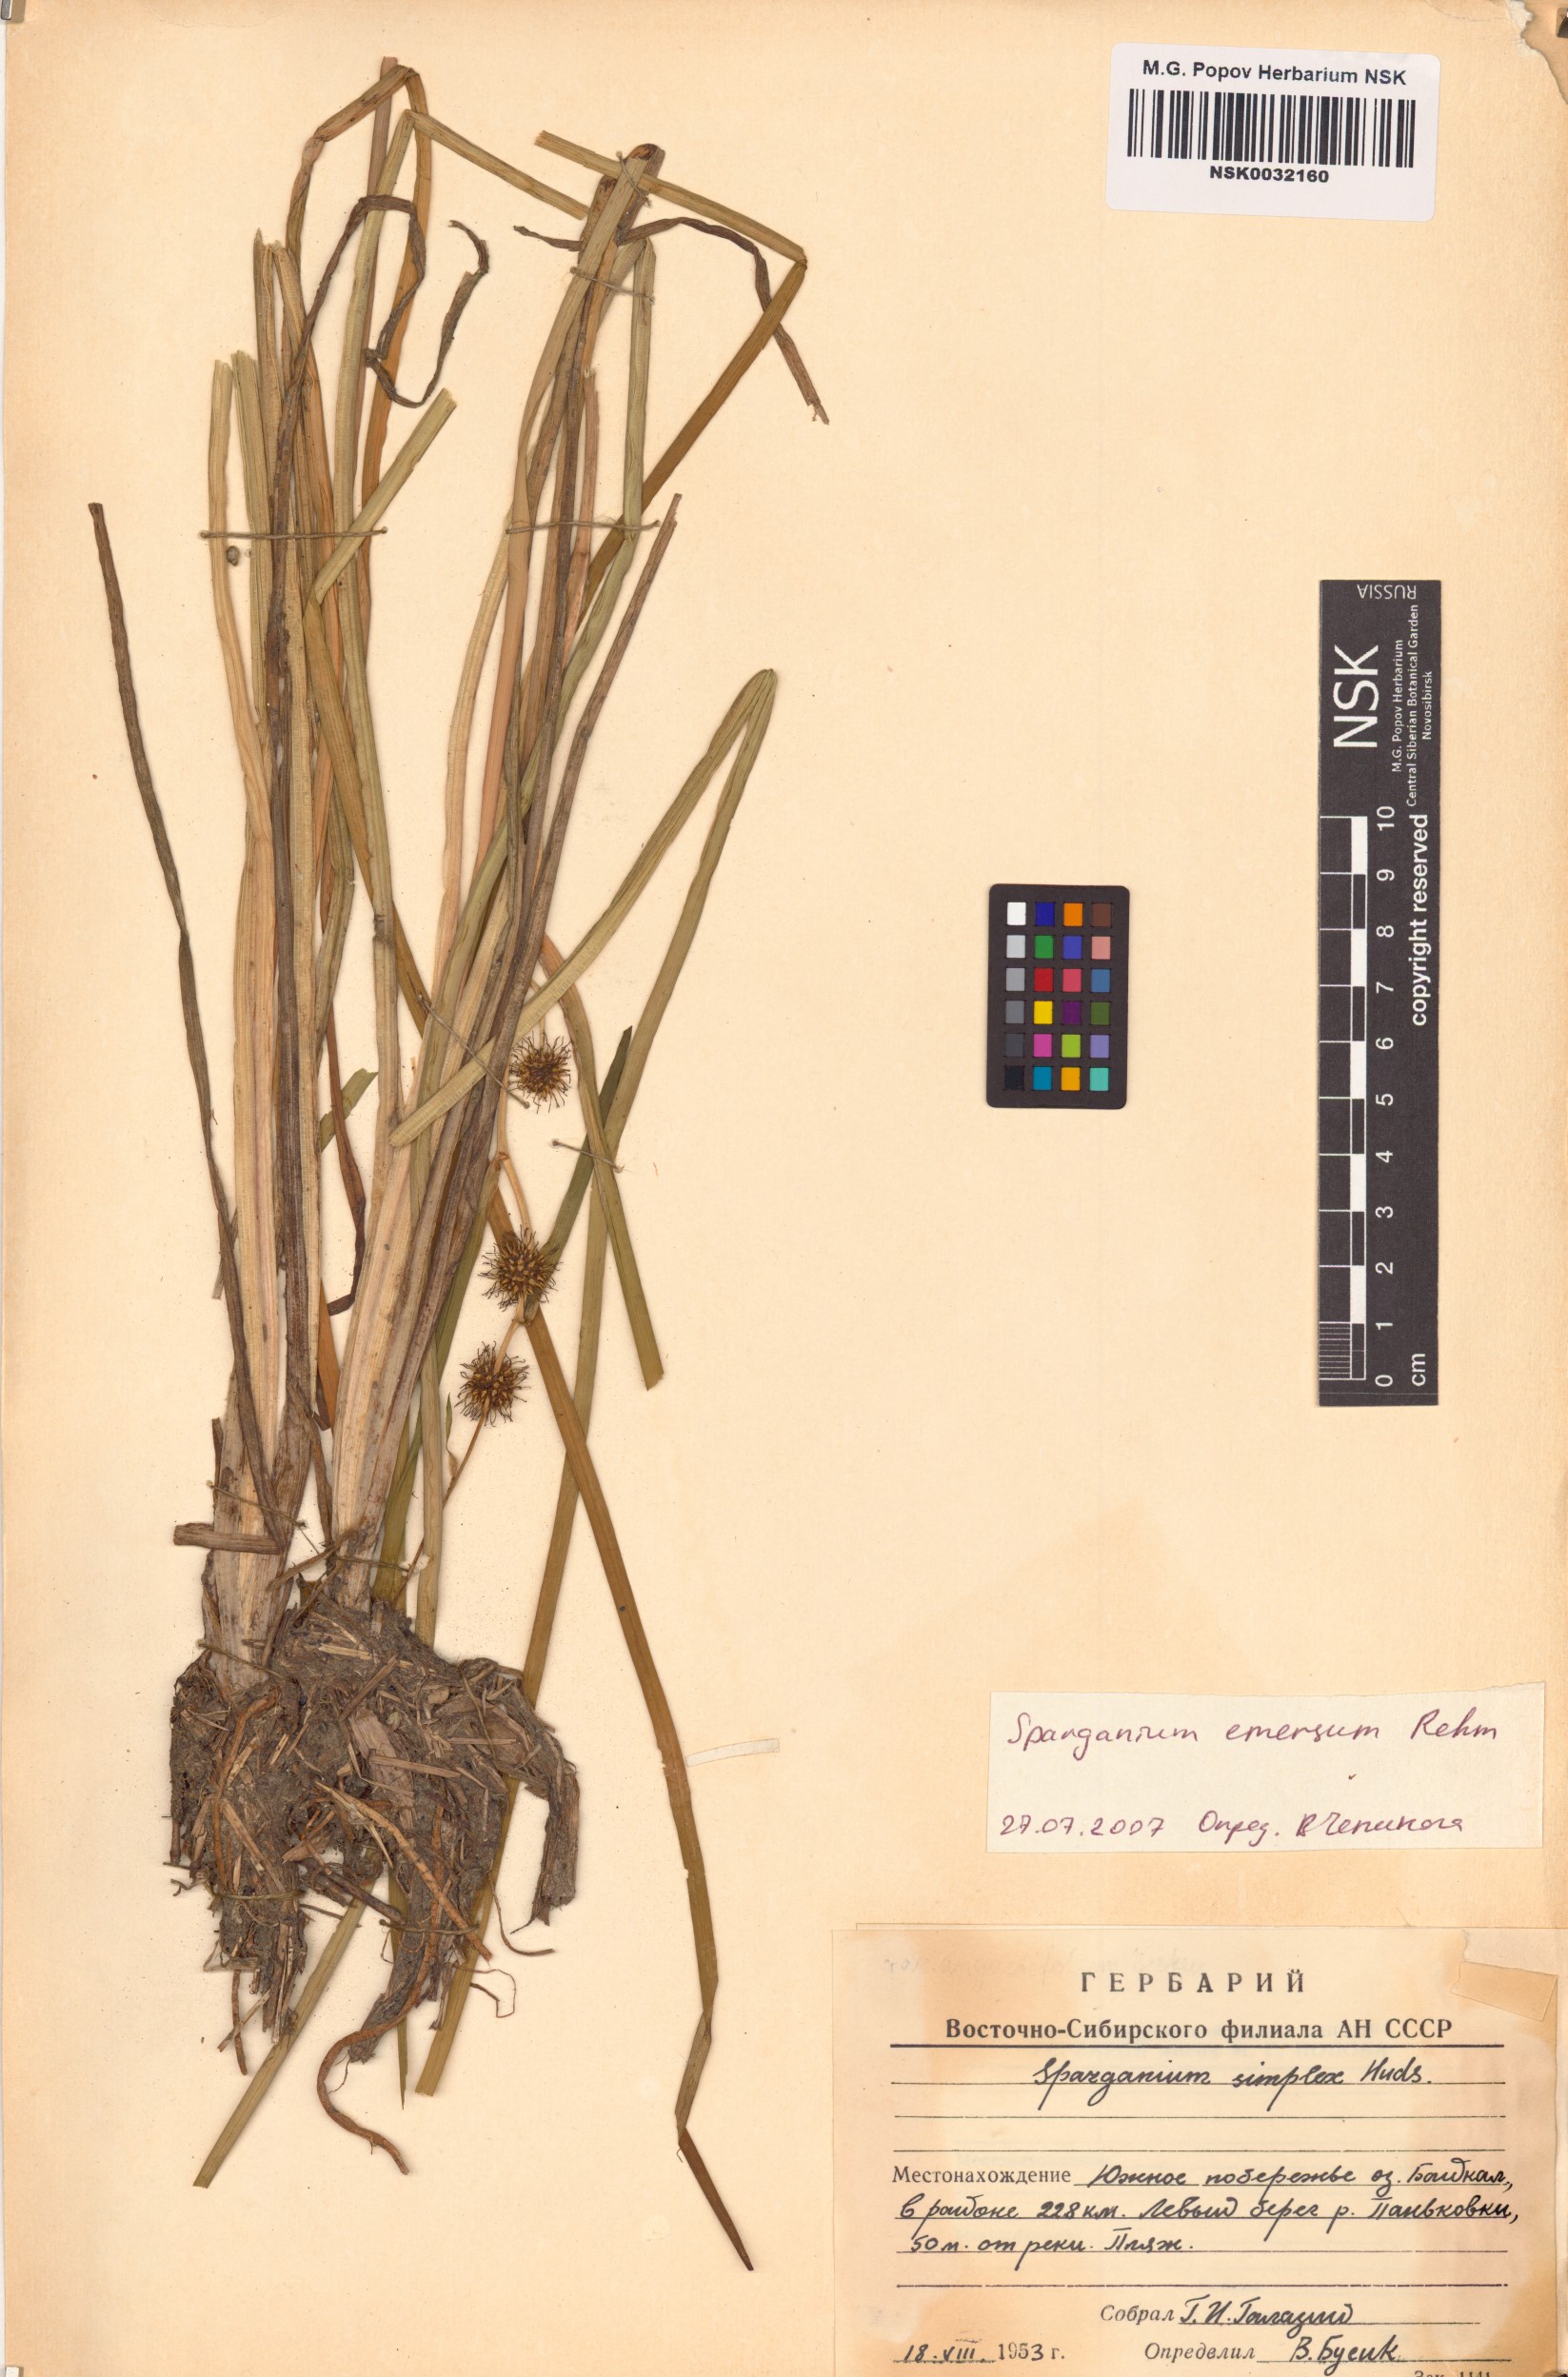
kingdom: Plantae
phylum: Tracheophyta
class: Liliopsida
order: Poales
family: Typhaceae
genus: Sparganium
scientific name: Sparganium emersum
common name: Unbranched bur-reed
